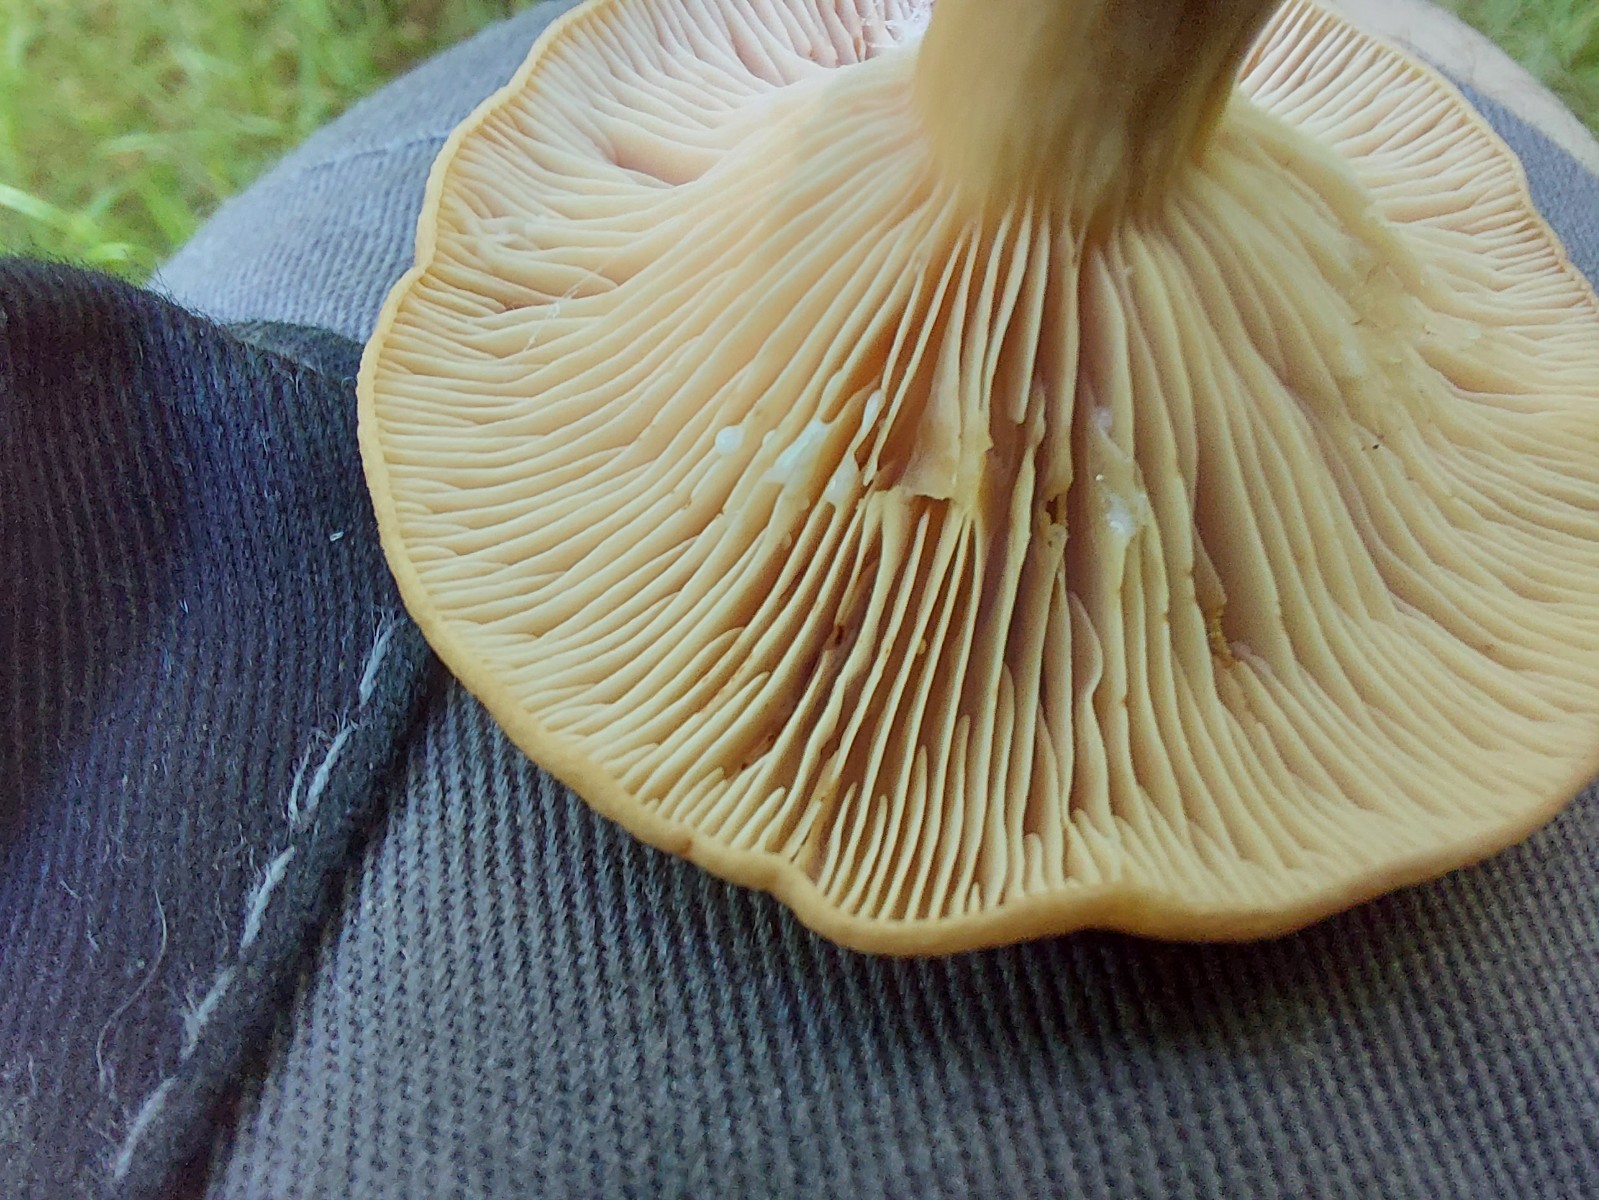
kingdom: Fungi
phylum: Basidiomycota
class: Agaricomycetes
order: Russulales
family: Russulaceae
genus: Lactarius
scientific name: Lactarius
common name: mælkehat
